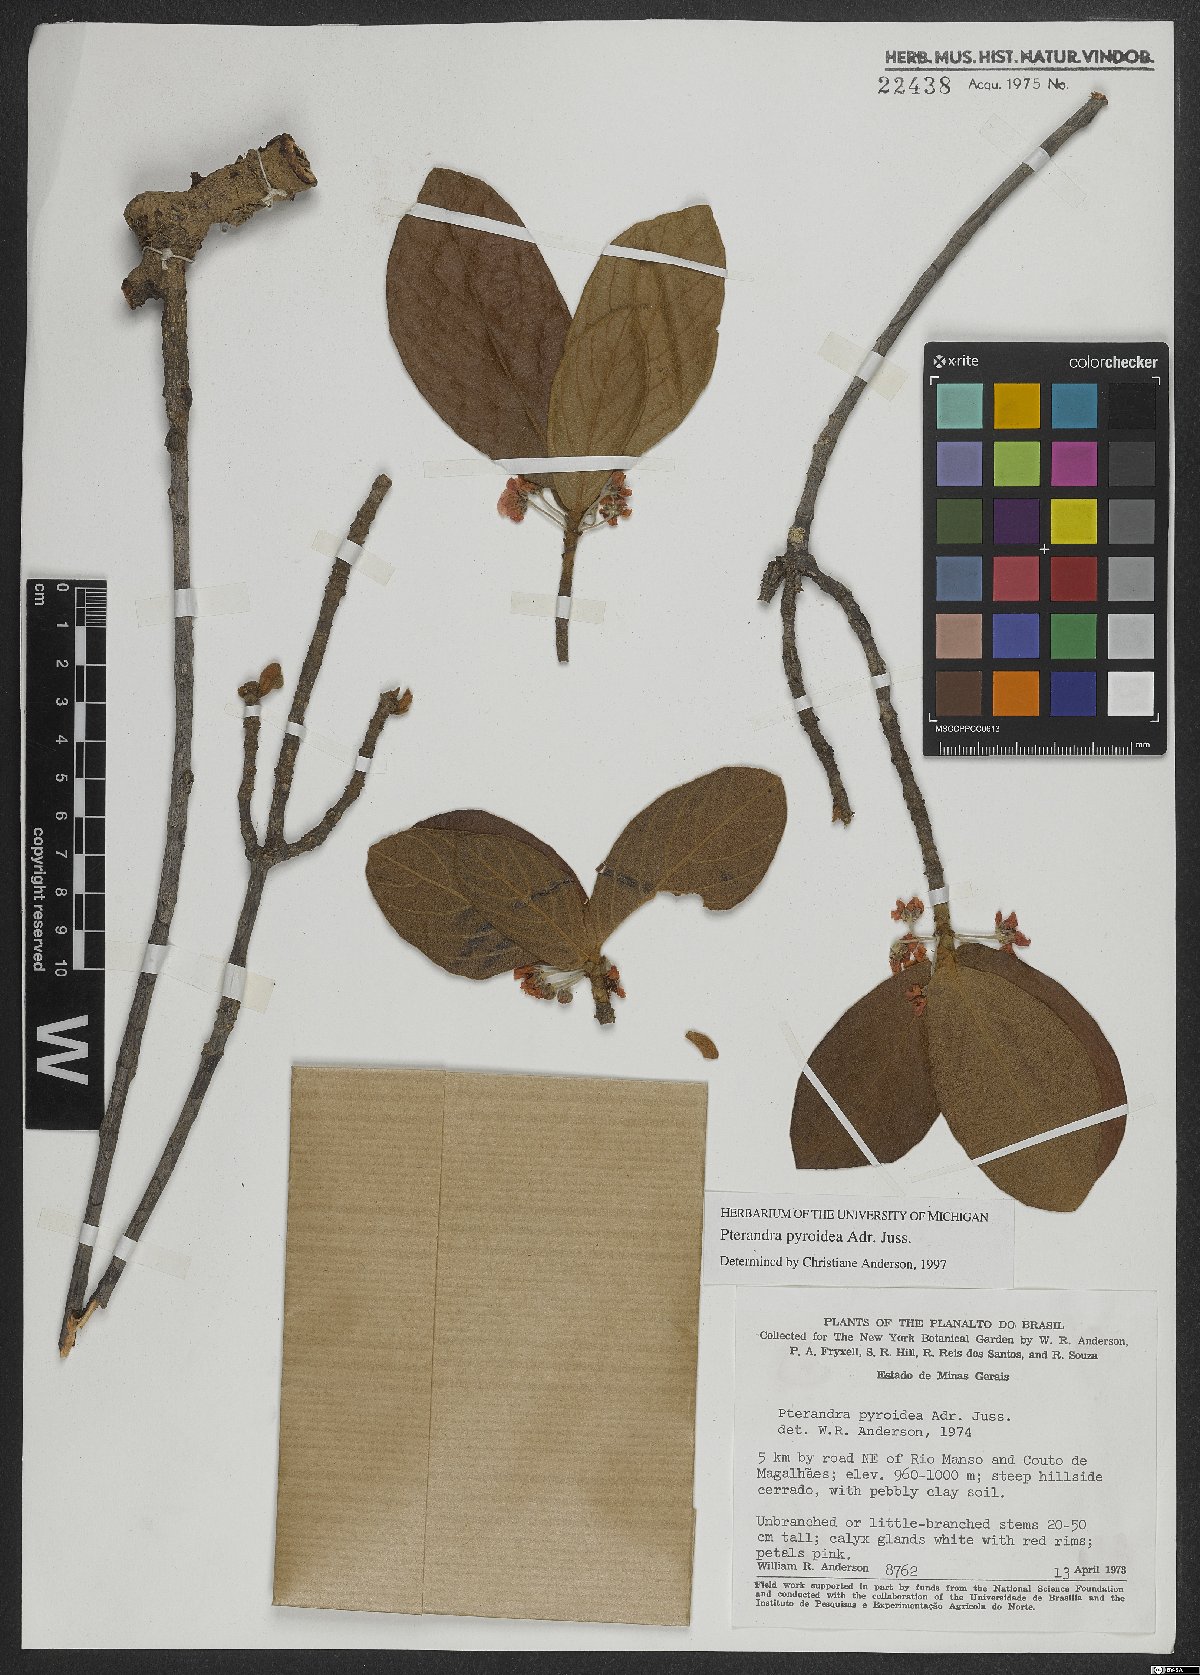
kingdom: Plantae
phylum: Tracheophyta
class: Magnoliopsida
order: Malpighiales
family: Malpighiaceae
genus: Pterandra
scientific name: Pterandra pyroidea
